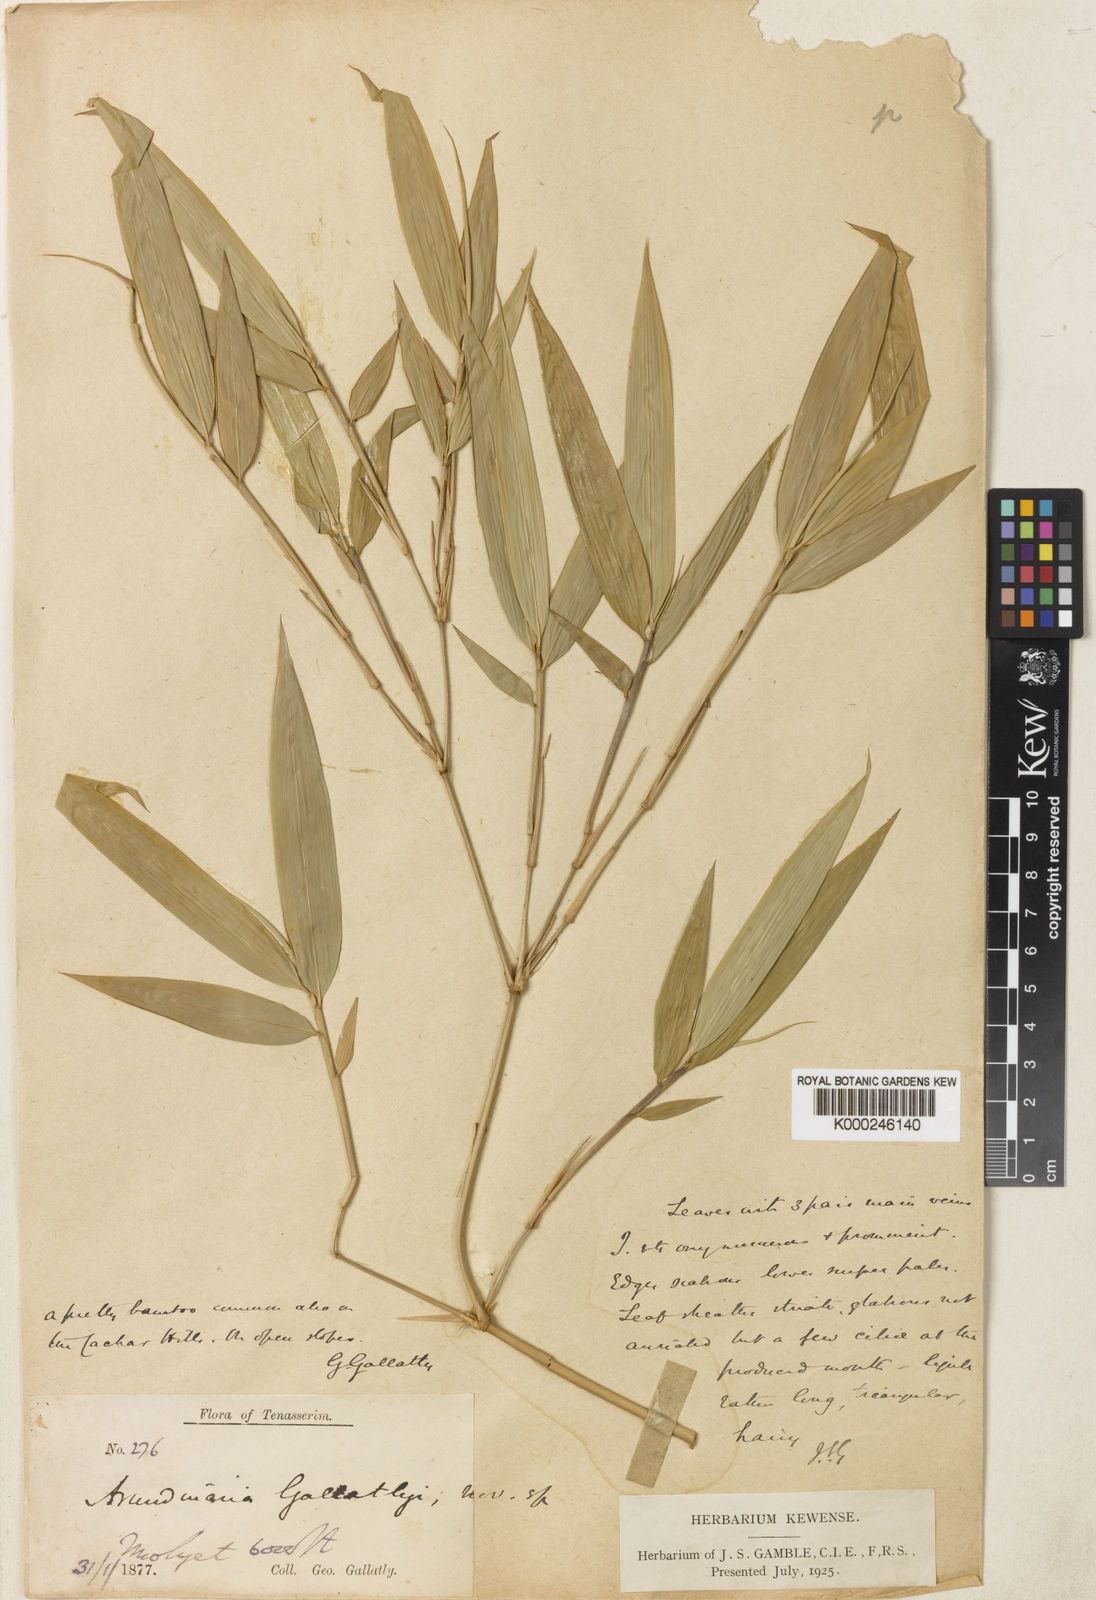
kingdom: Plantae
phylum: Tracheophyta
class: Liliopsida
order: Poales
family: Poaceae
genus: Chimonocalamus
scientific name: Chimonocalamus gallatlyi
